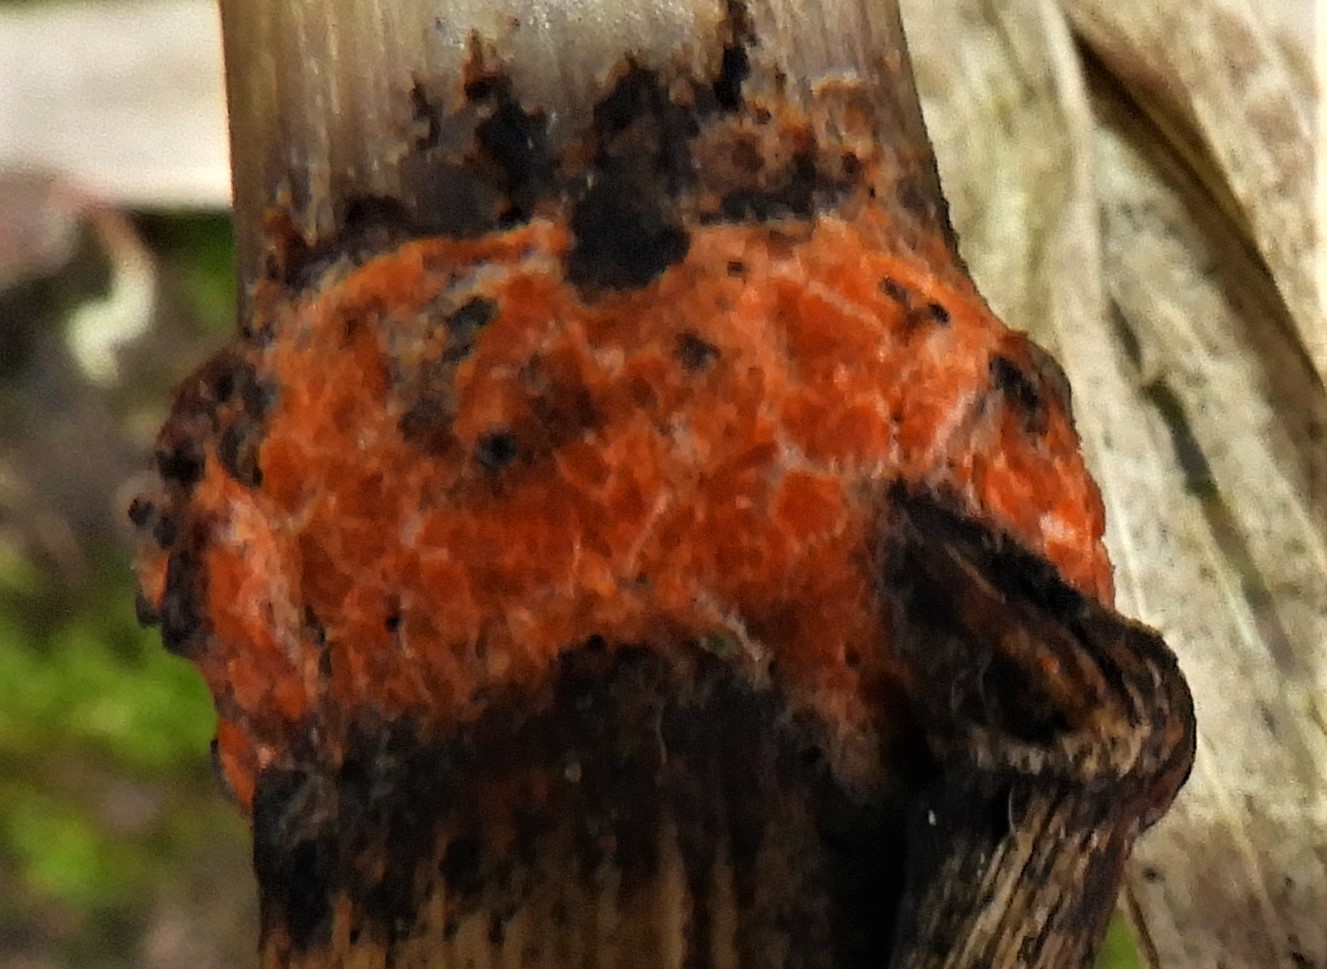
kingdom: Fungi
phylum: Ascomycota
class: Sordariomycetes
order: Hypocreales
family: Nectriaceae
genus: Fusarium
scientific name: Fusarium
